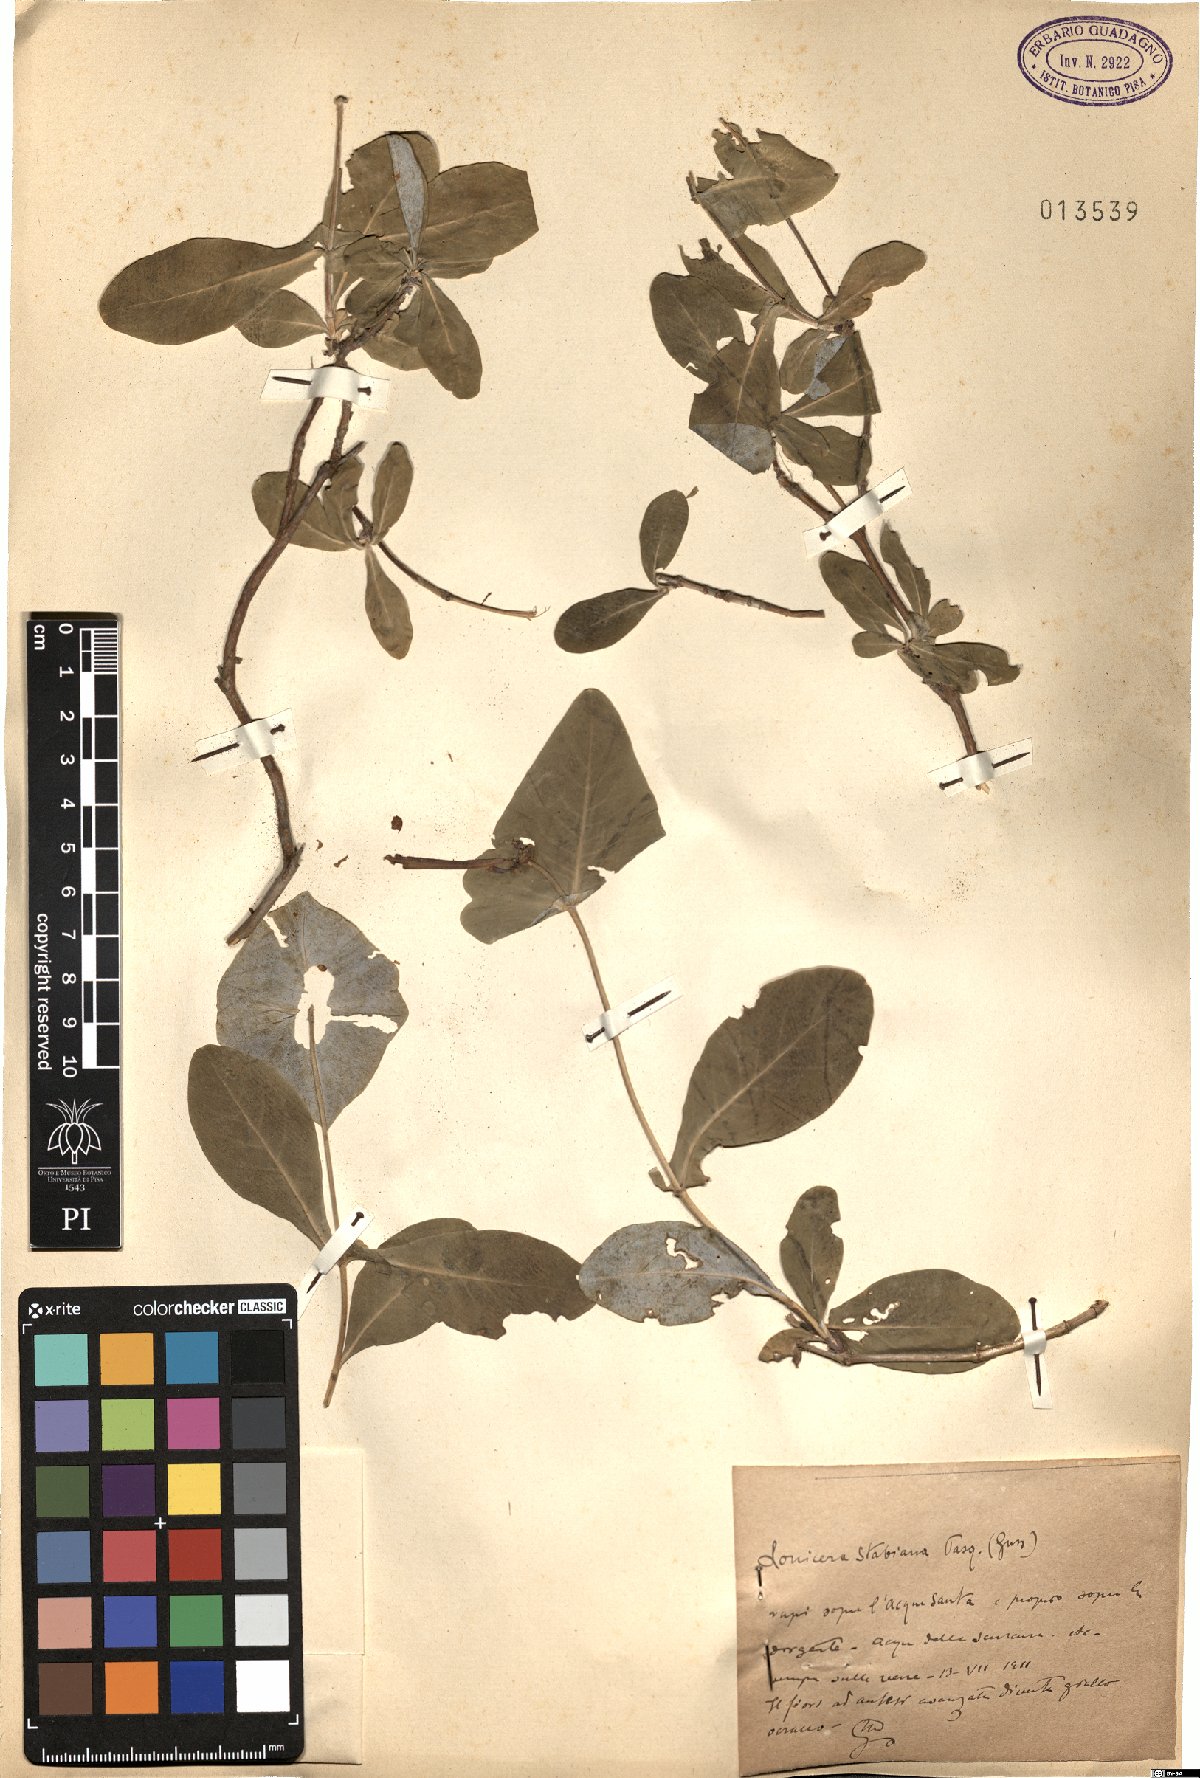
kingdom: Plantae
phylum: Tracheophyta
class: Magnoliopsida
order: Dipsacales
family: Caprifoliaceae
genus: Lonicera
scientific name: Lonicera stabiana
